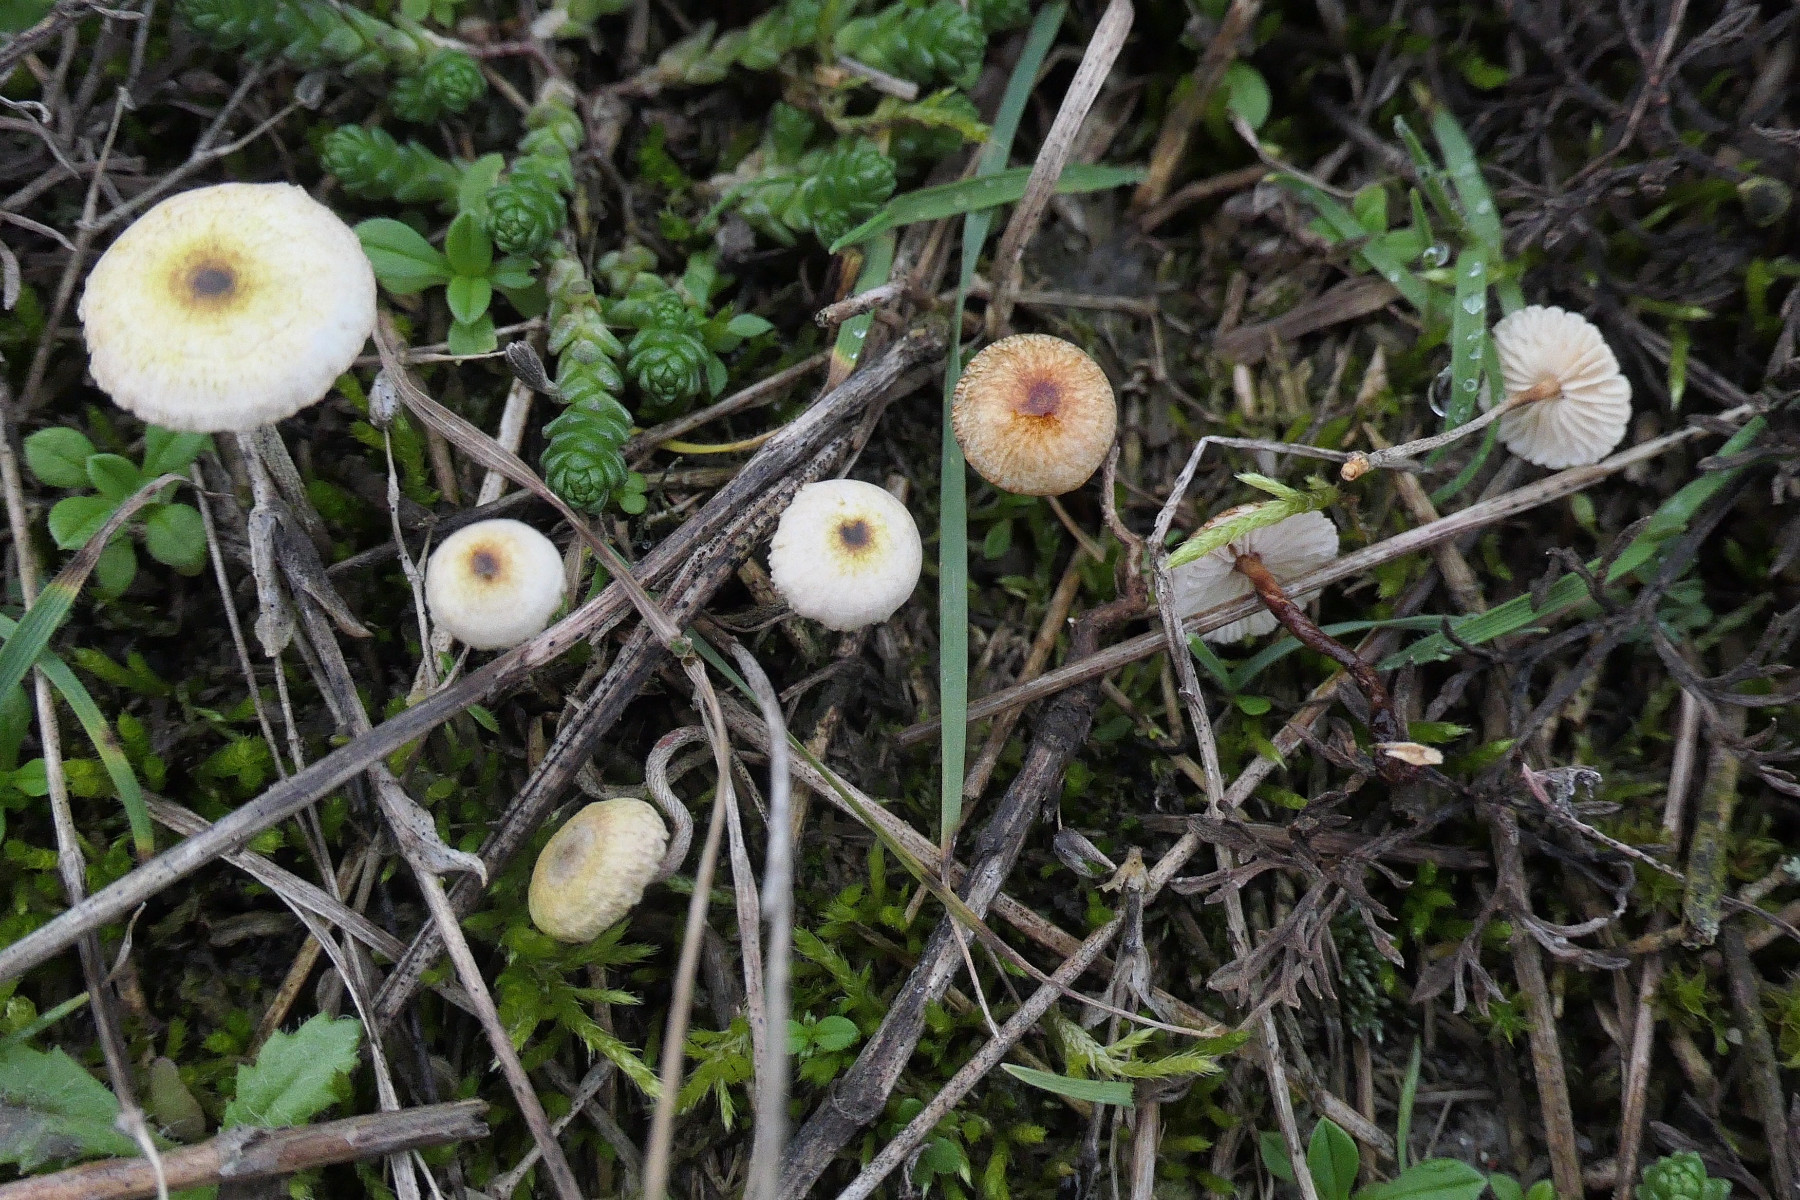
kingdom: Fungi
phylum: Basidiomycota
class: Agaricomycetes
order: Agaricales
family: Marasmiaceae
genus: Crinipellis
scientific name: Crinipellis scabella
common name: børstefod
